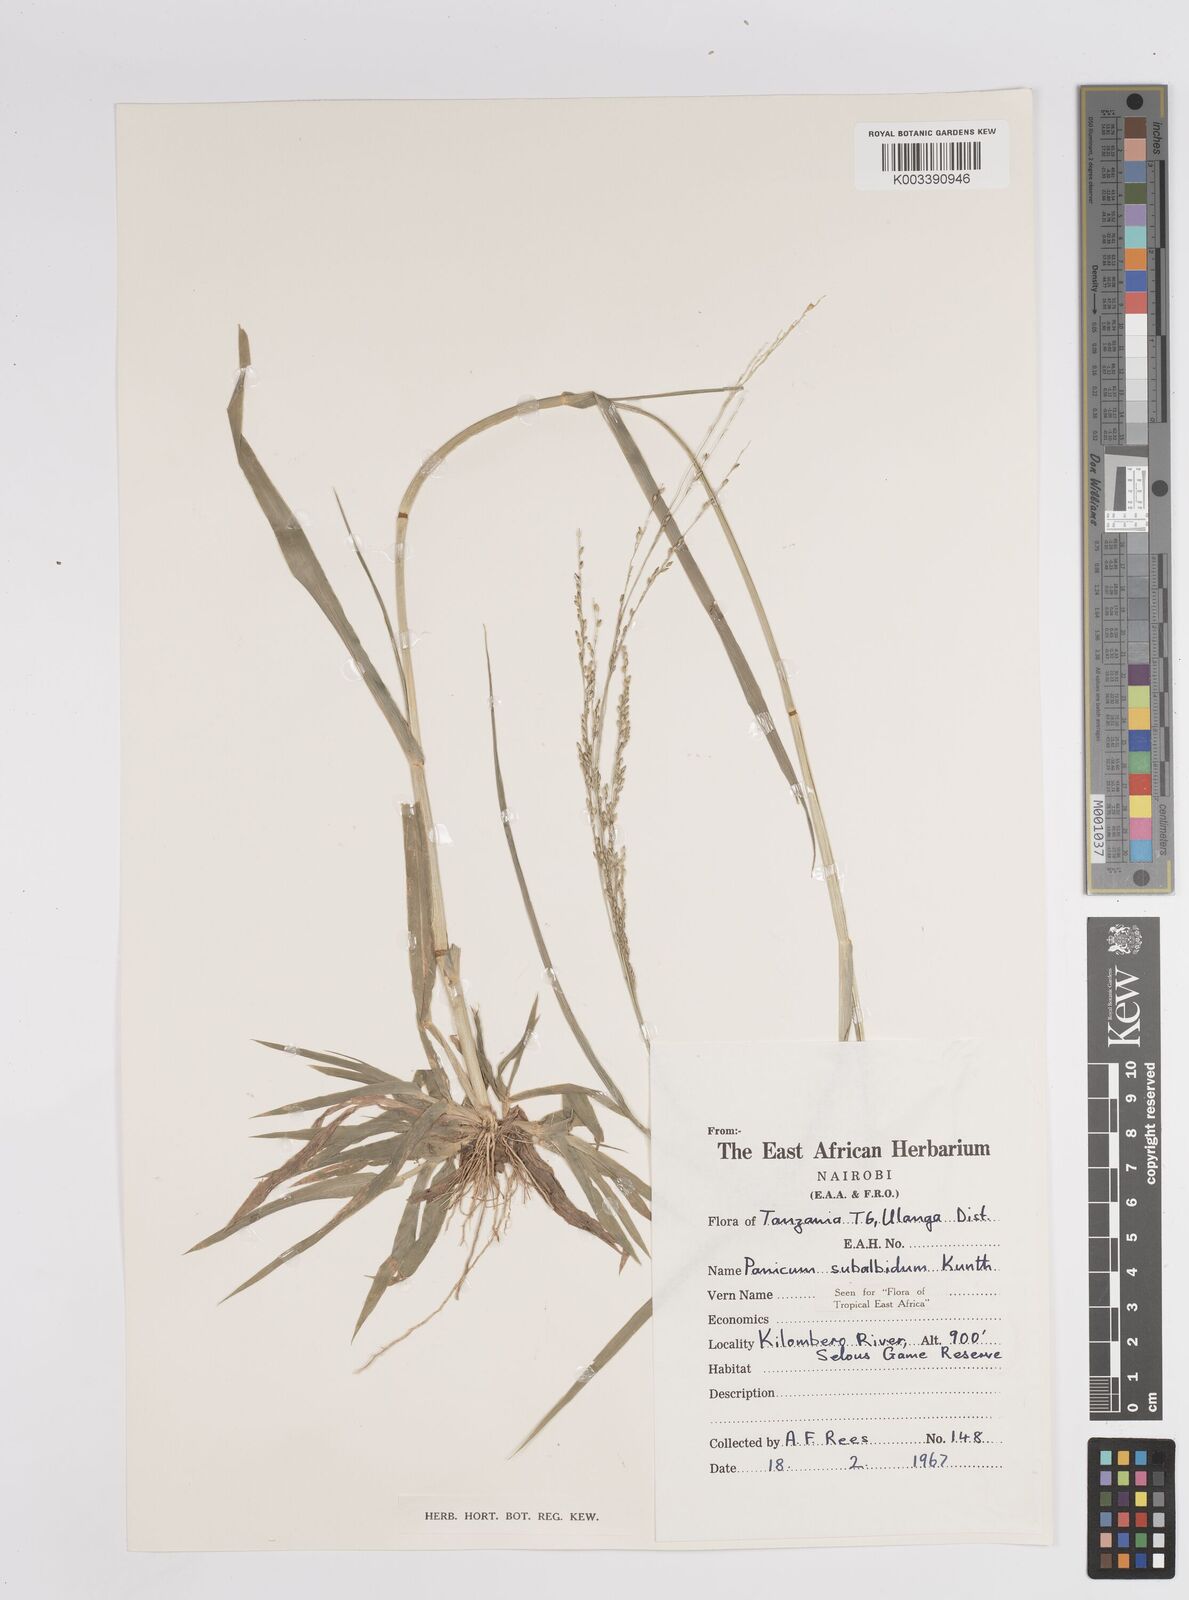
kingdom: Plantae
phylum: Tracheophyta
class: Liliopsida
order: Poales
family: Poaceae
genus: Panicum
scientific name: Panicum subalbidum
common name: Elbow buffalo grass
